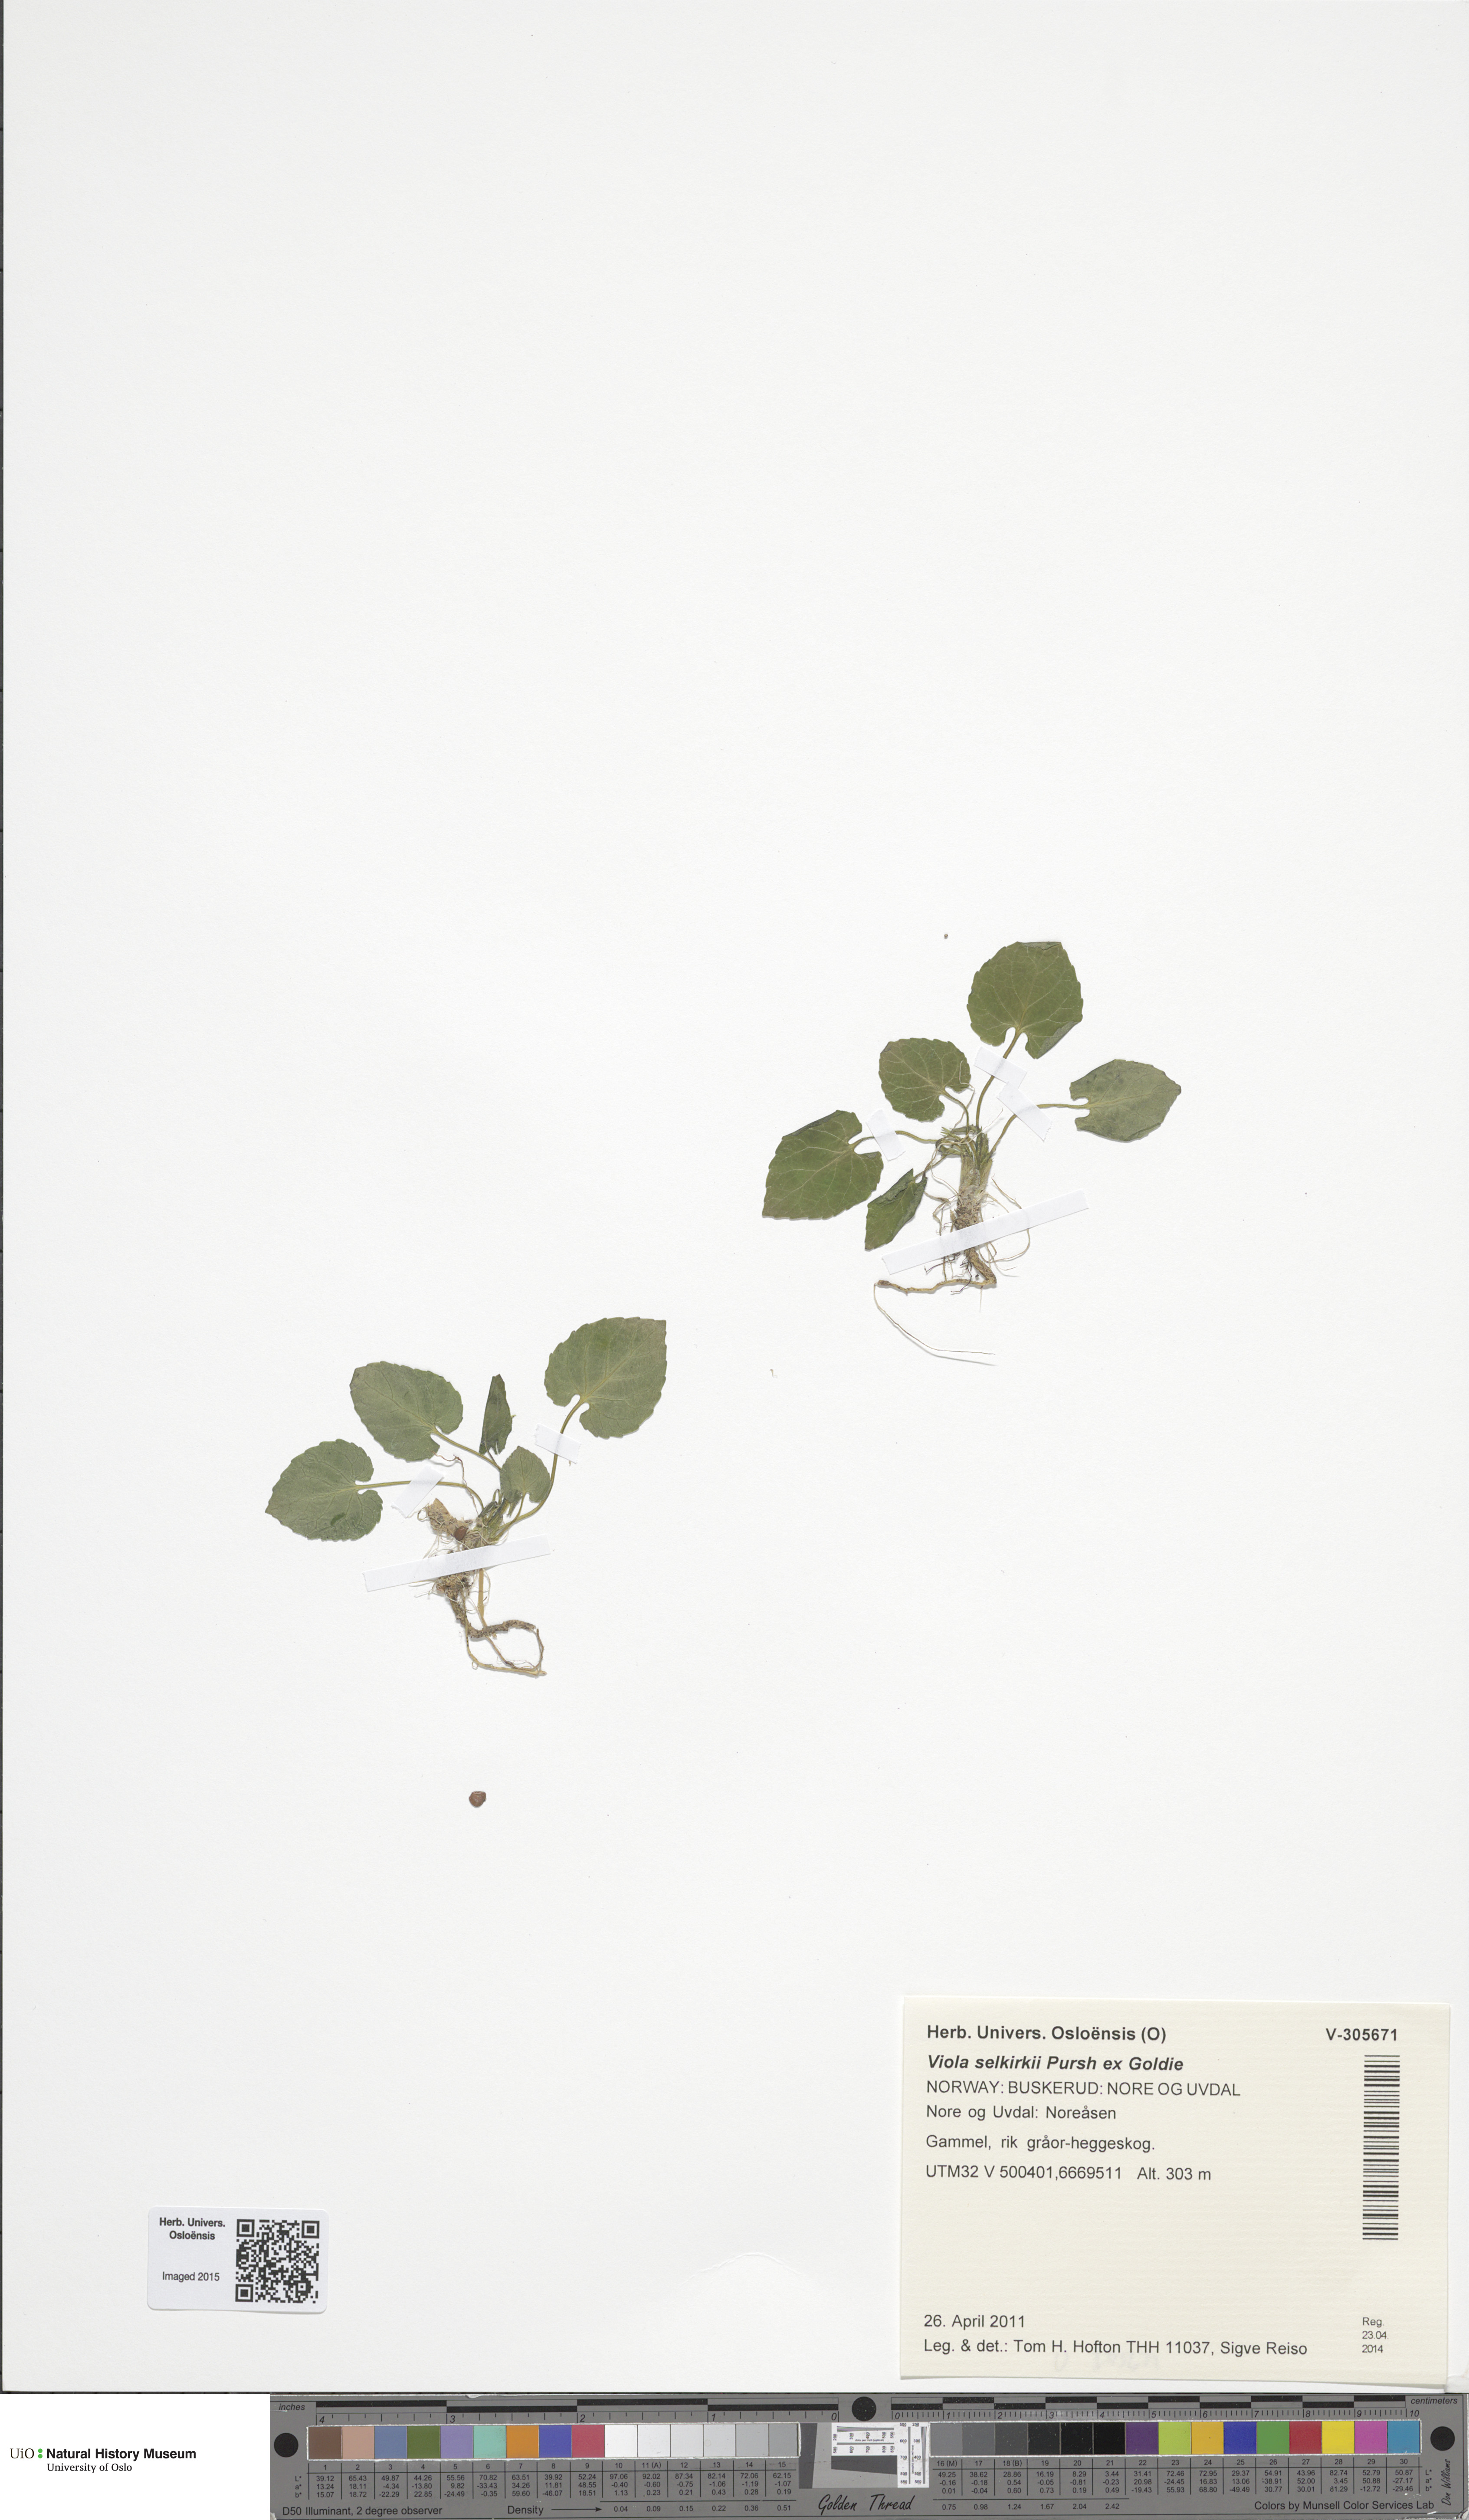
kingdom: Plantae
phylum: Tracheophyta
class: Magnoliopsida
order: Malpighiales
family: Violaceae
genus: Viola
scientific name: Viola selkirkii
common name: Selkirk's violet
